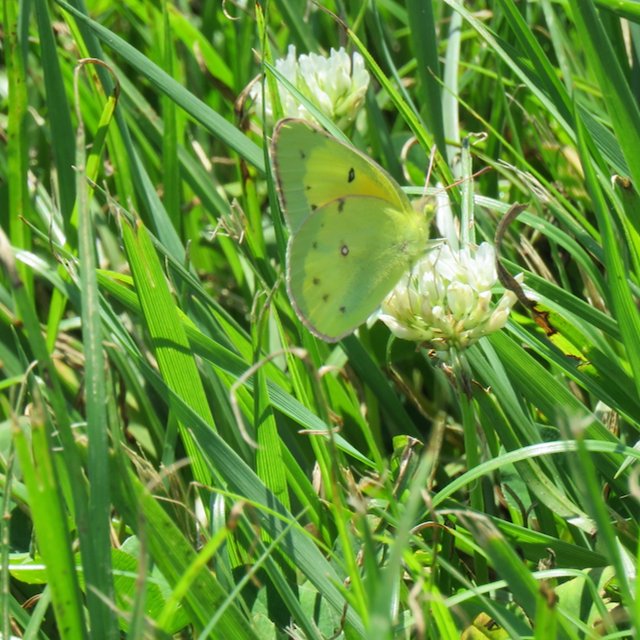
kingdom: Animalia
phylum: Arthropoda
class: Insecta
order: Lepidoptera
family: Pieridae
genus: Colias
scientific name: Colias eurytheme
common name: Orange Sulphur
